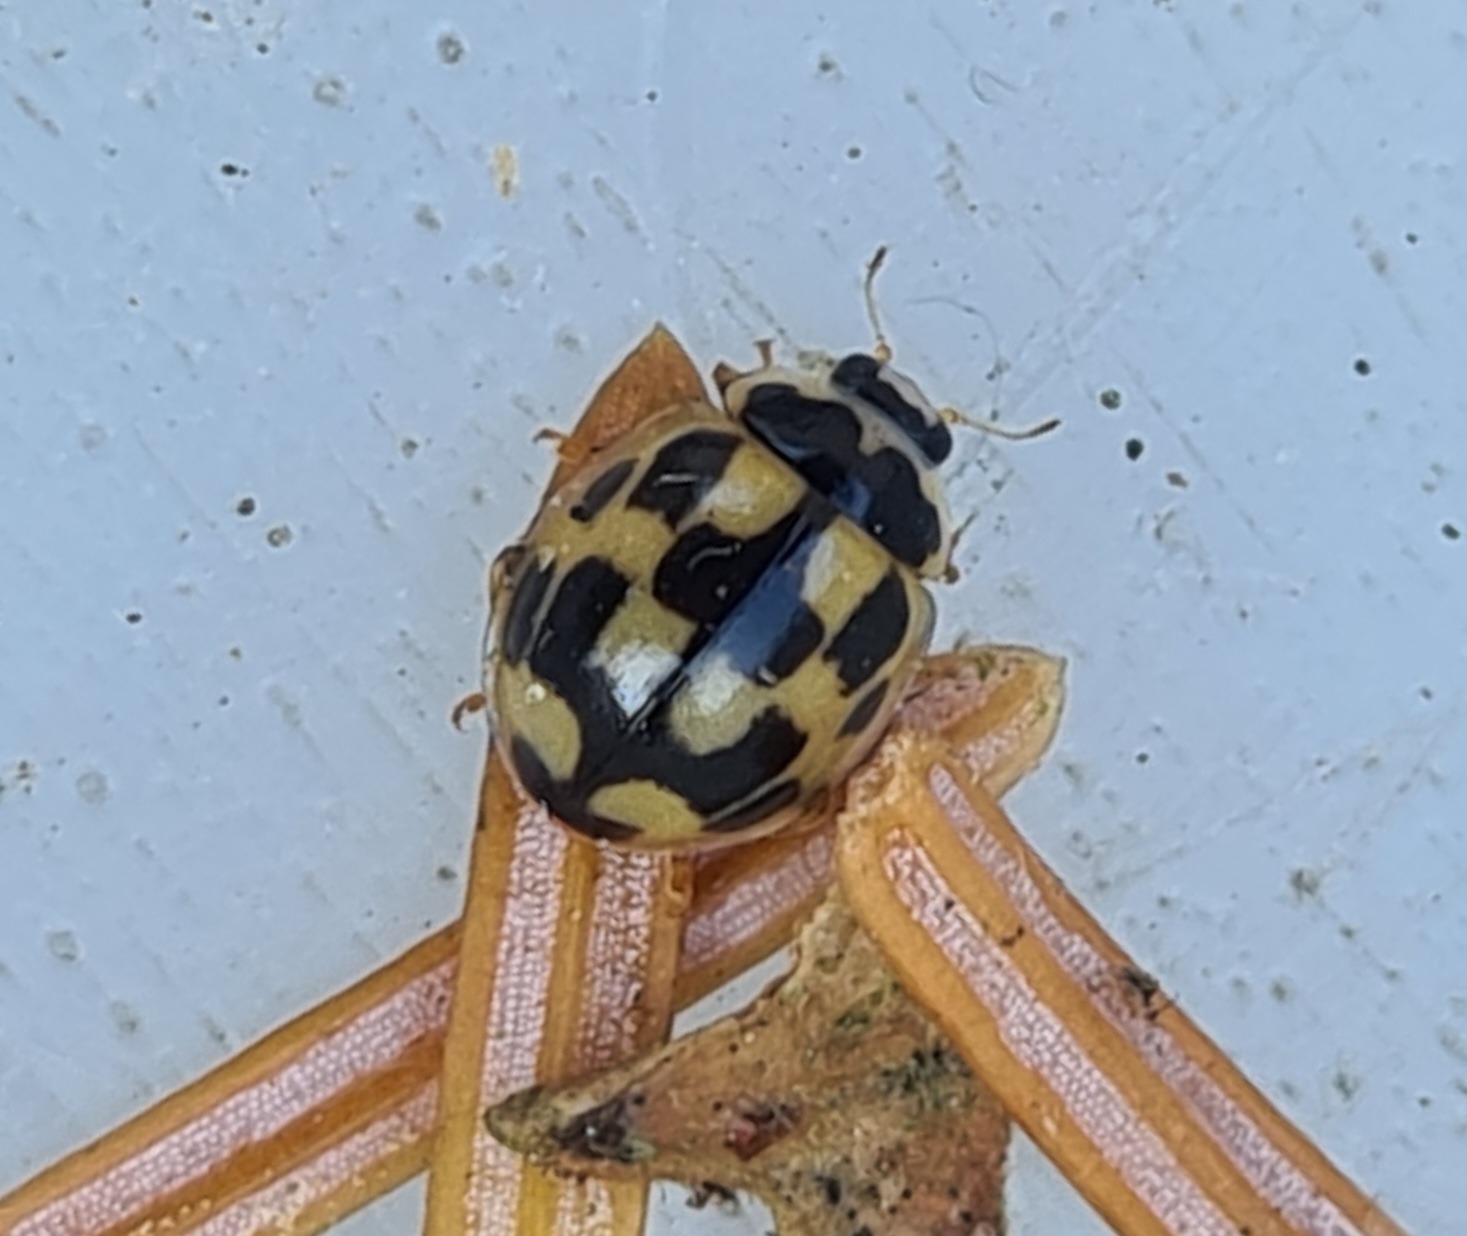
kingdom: Animalia
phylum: Arthropoda
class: Insecta
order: Coleoptera
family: Coccinellidae
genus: Propylaea
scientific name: Propylaea quatuordecimpunctata
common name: Skakbræt
